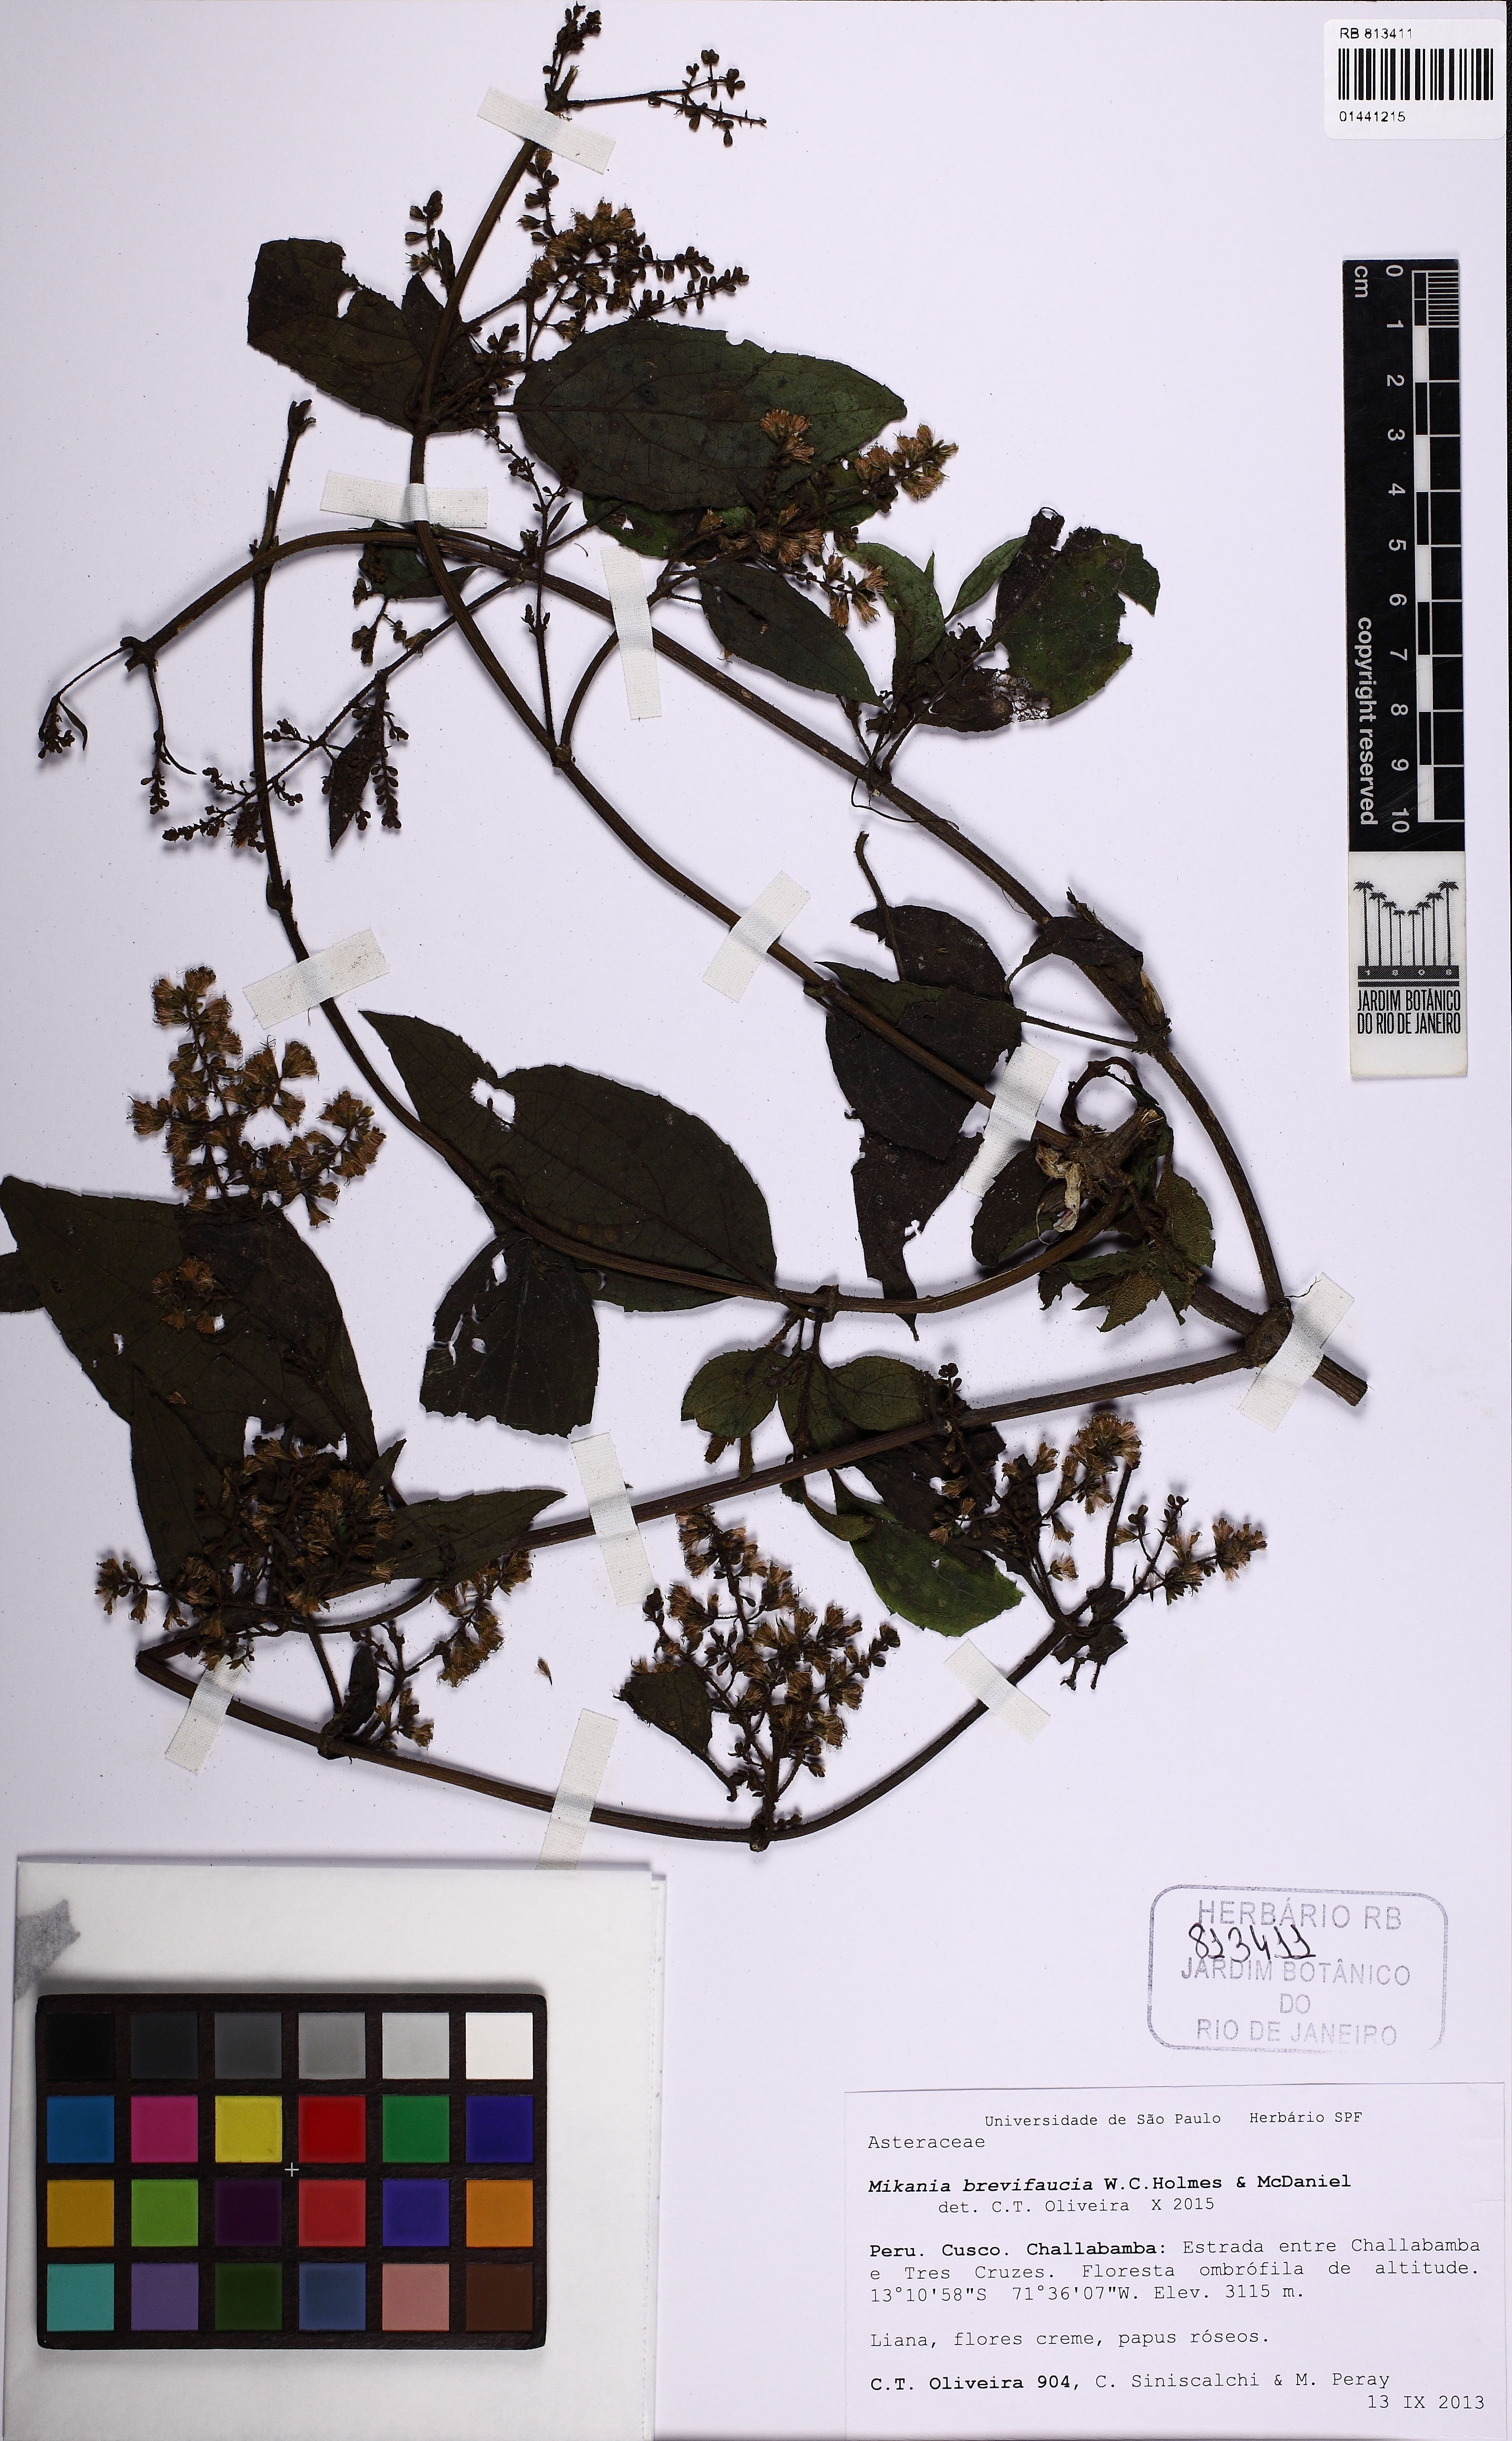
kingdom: Plantae
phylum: Tracheophyta
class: Magnoliopsida
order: Asterales
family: Asteraceae
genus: Mikania
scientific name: Mikania brevifaucia
